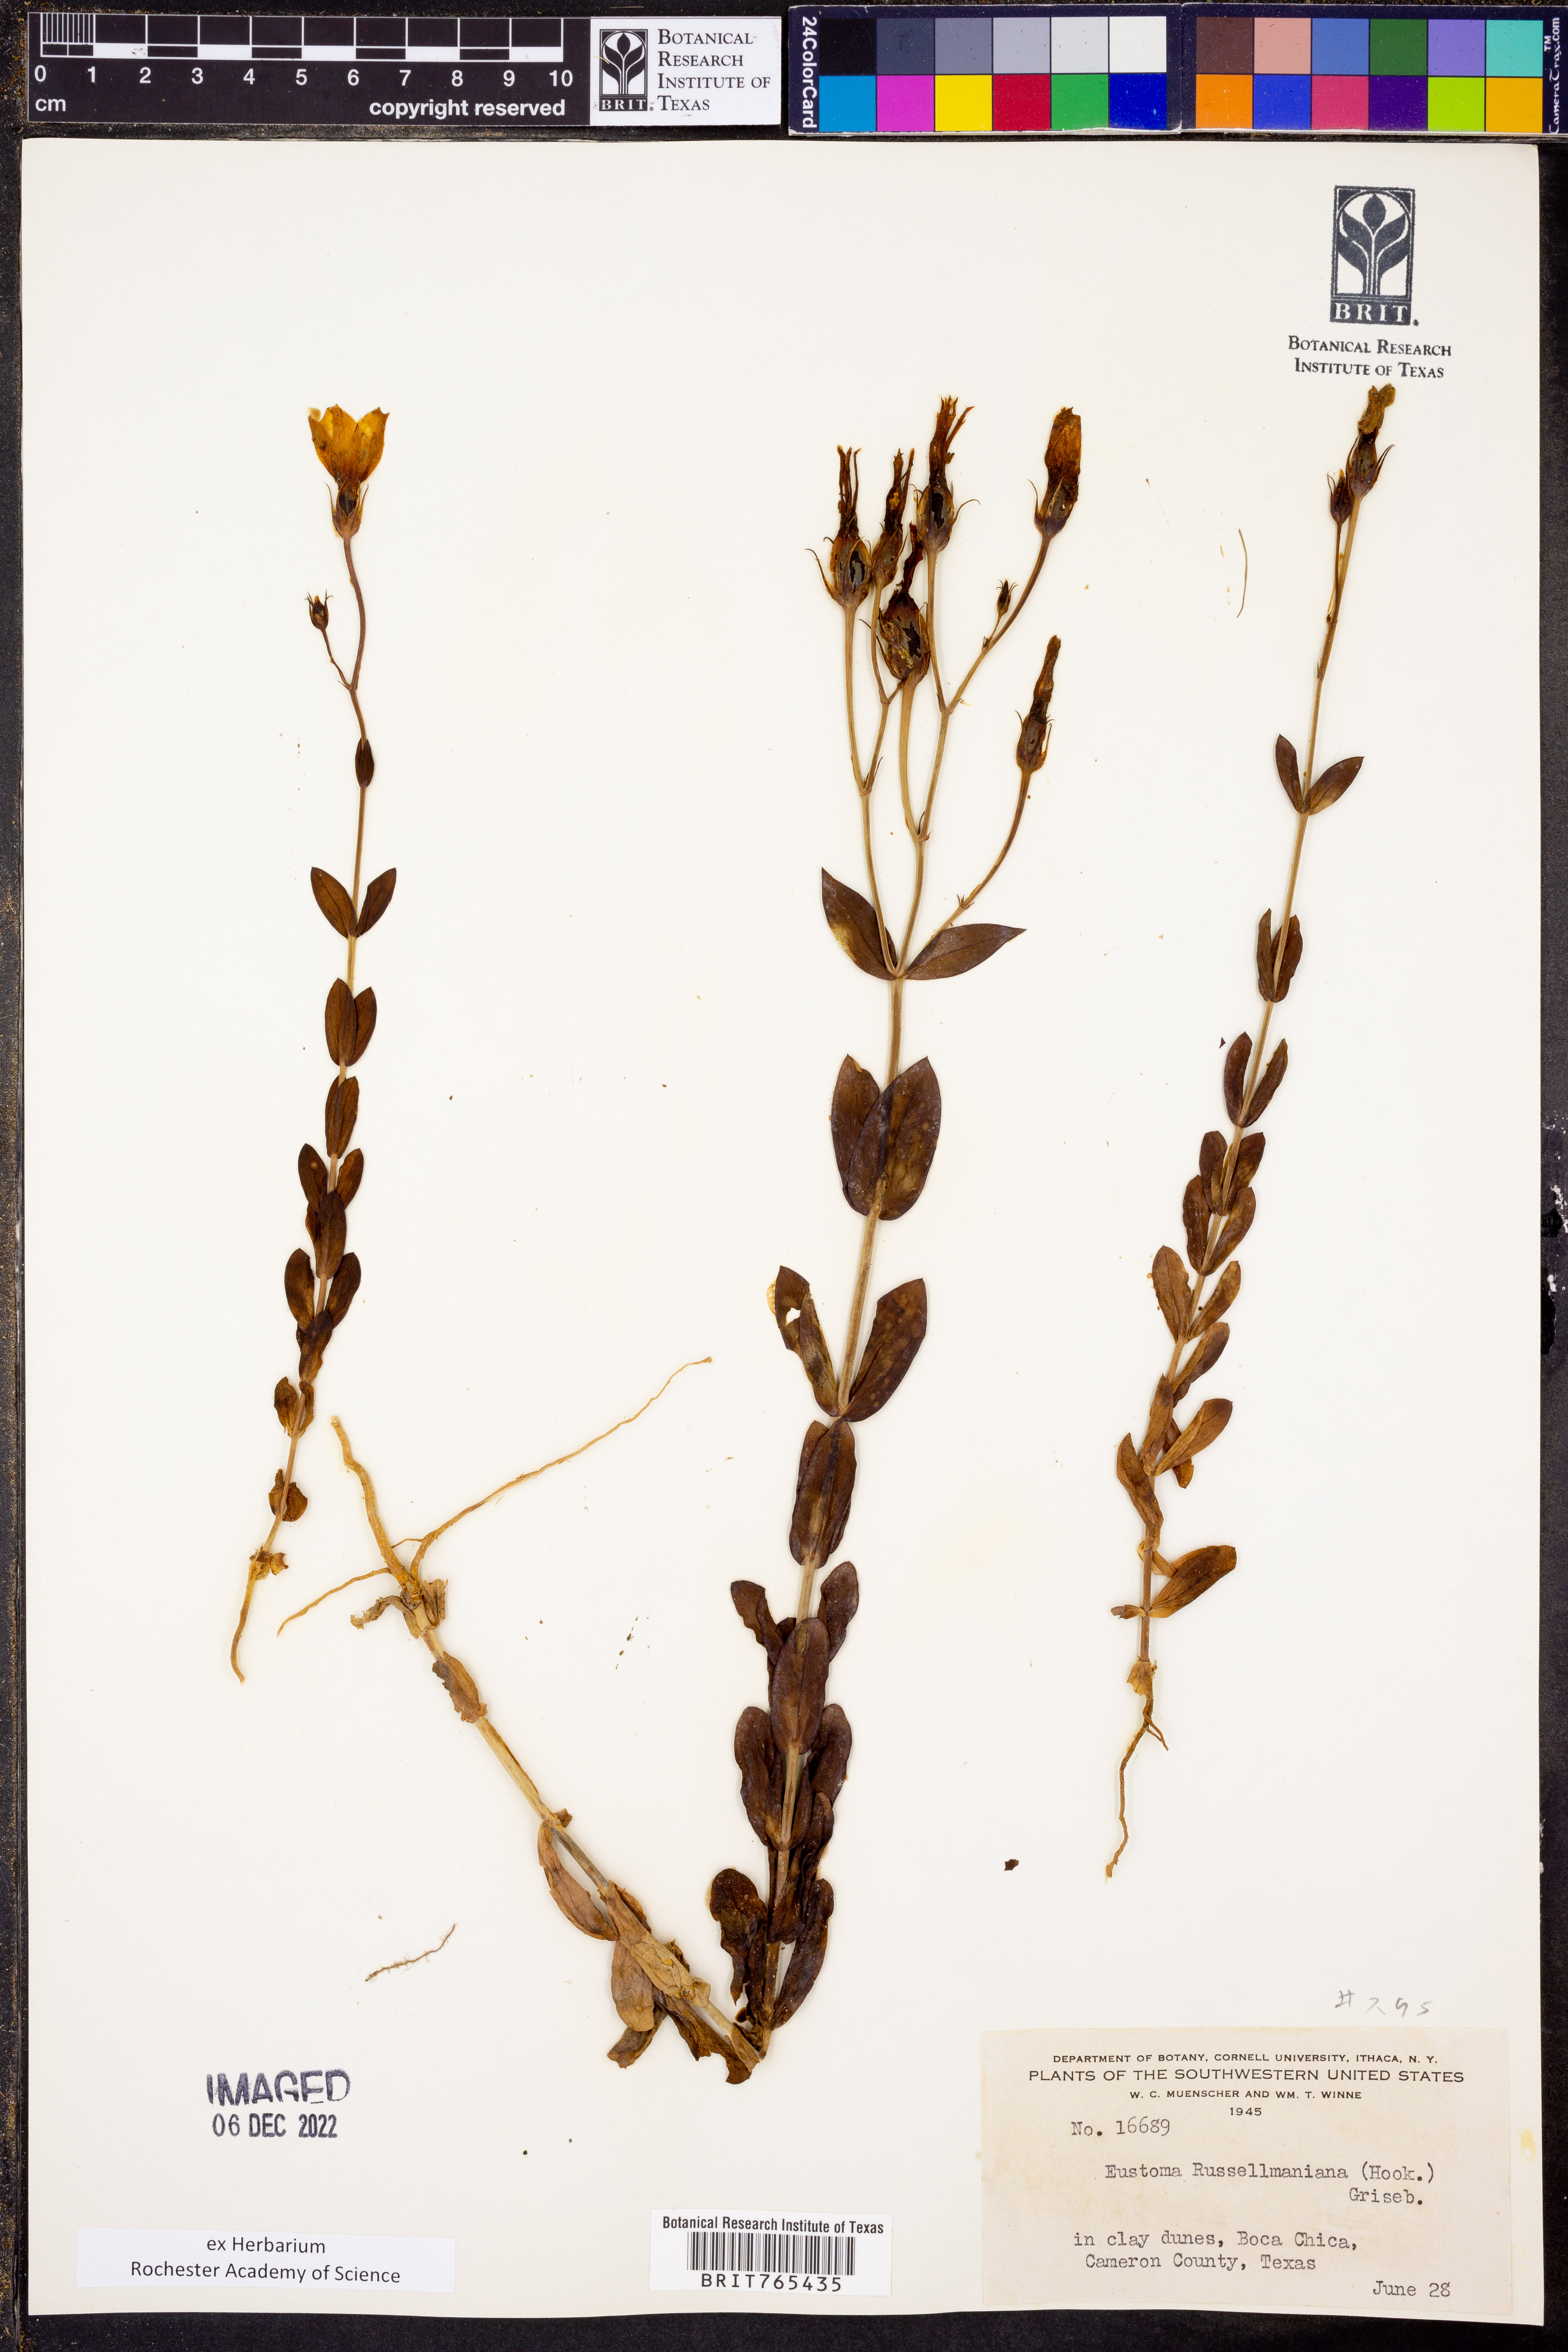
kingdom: Plantae
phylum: Tracheophyta
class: Magnoliopsida
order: Gentianales
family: Gentianaceae
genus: Eustoma
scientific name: Eustoma russellianum
